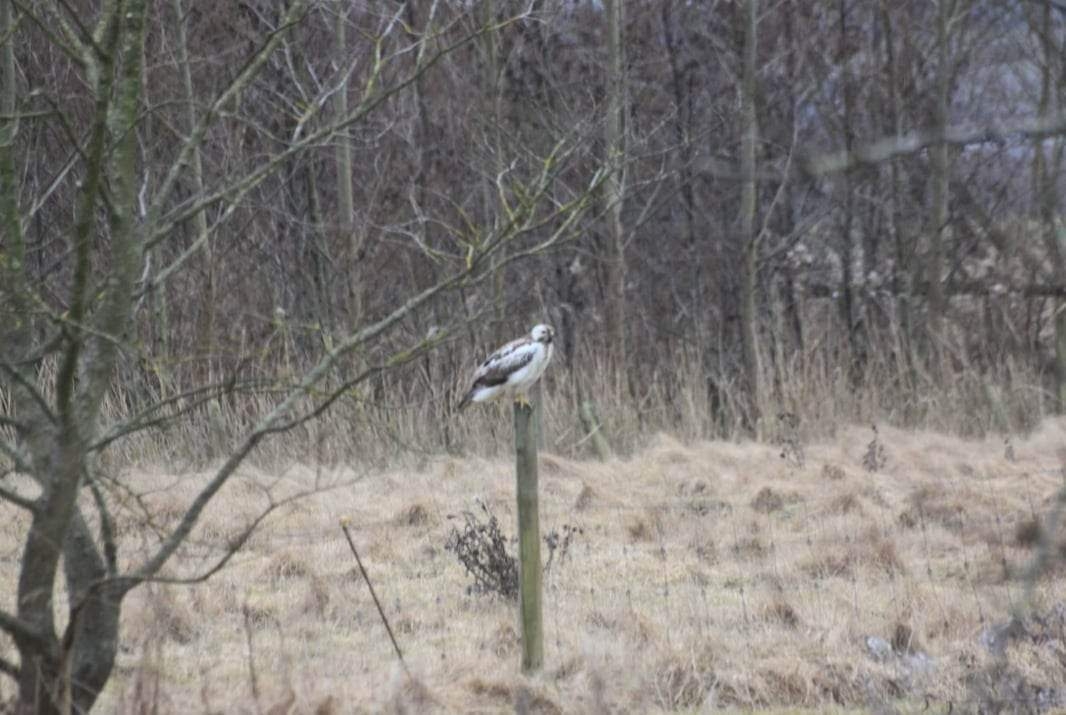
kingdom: Animalia
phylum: Chordata
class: Aves
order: Accipitriformes
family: Accipitridae
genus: Buteo
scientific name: Buteo buteo
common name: Musvåge
